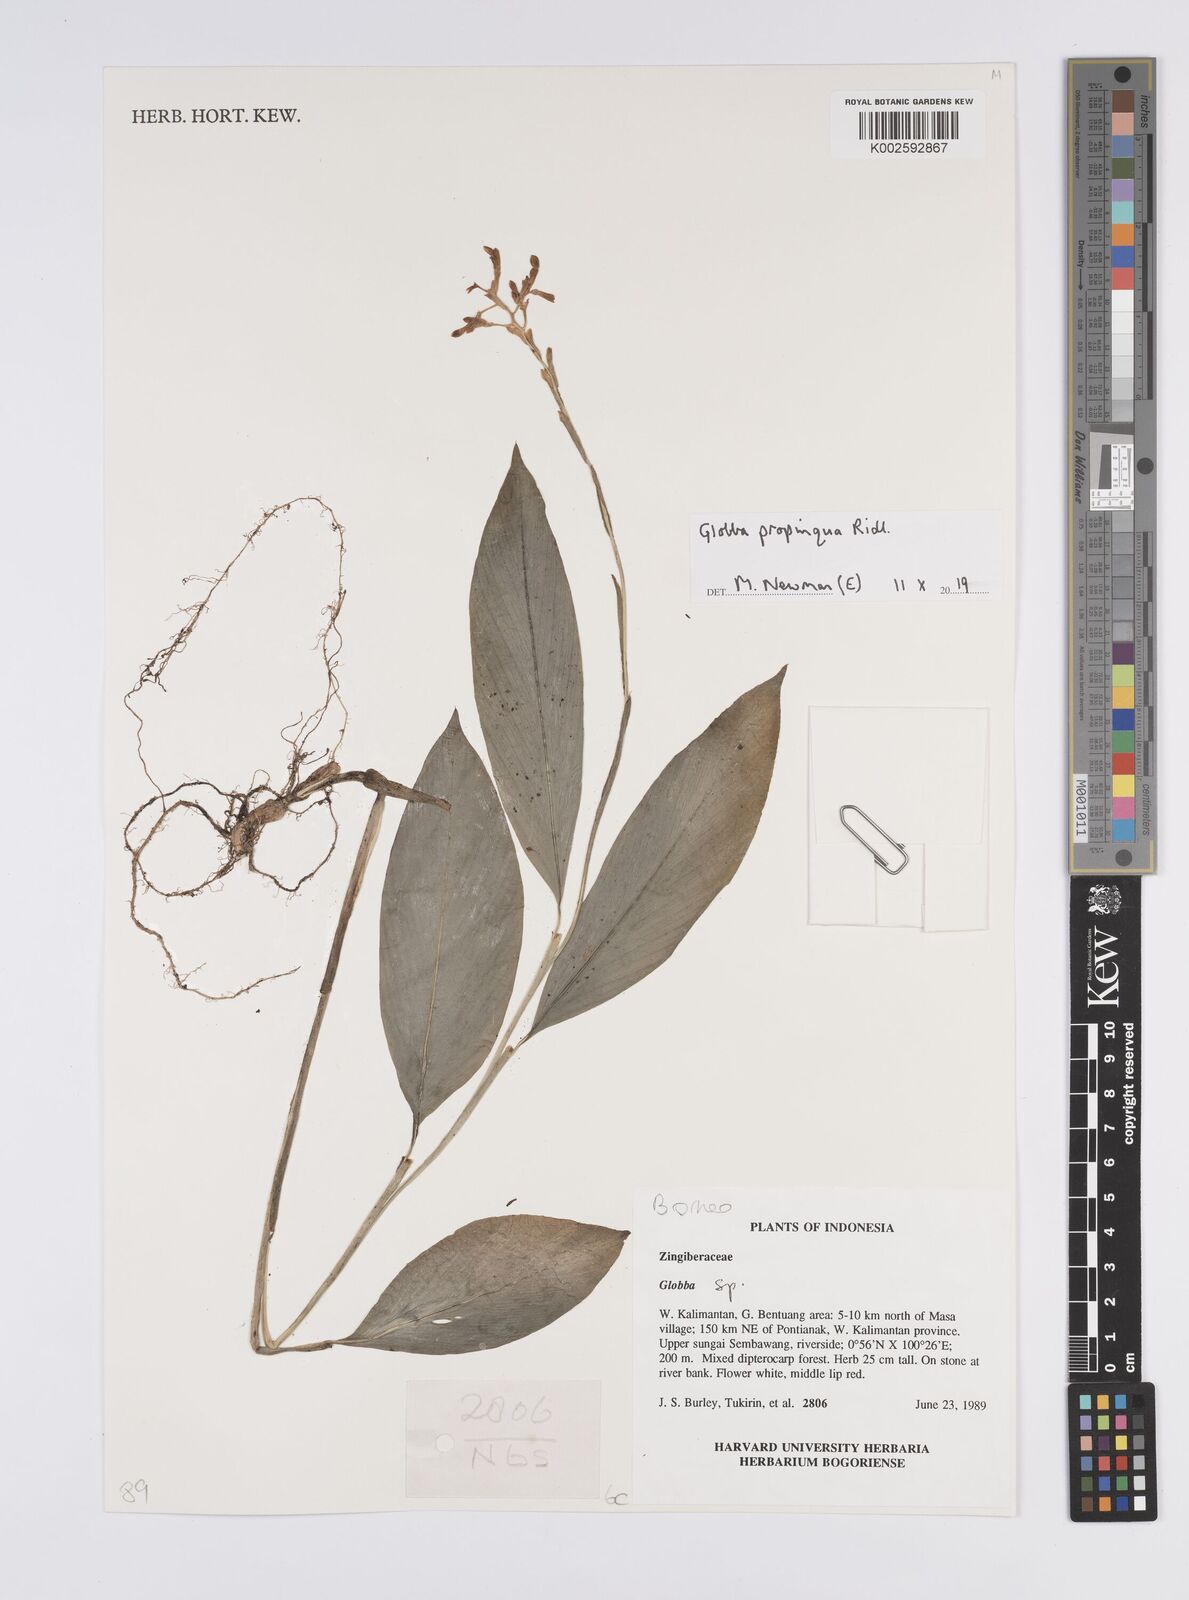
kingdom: Plantae
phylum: Tracheophyta
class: Liliopsida
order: Zingiberales
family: Zingiberaceae
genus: Globba
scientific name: Globba propinqua
